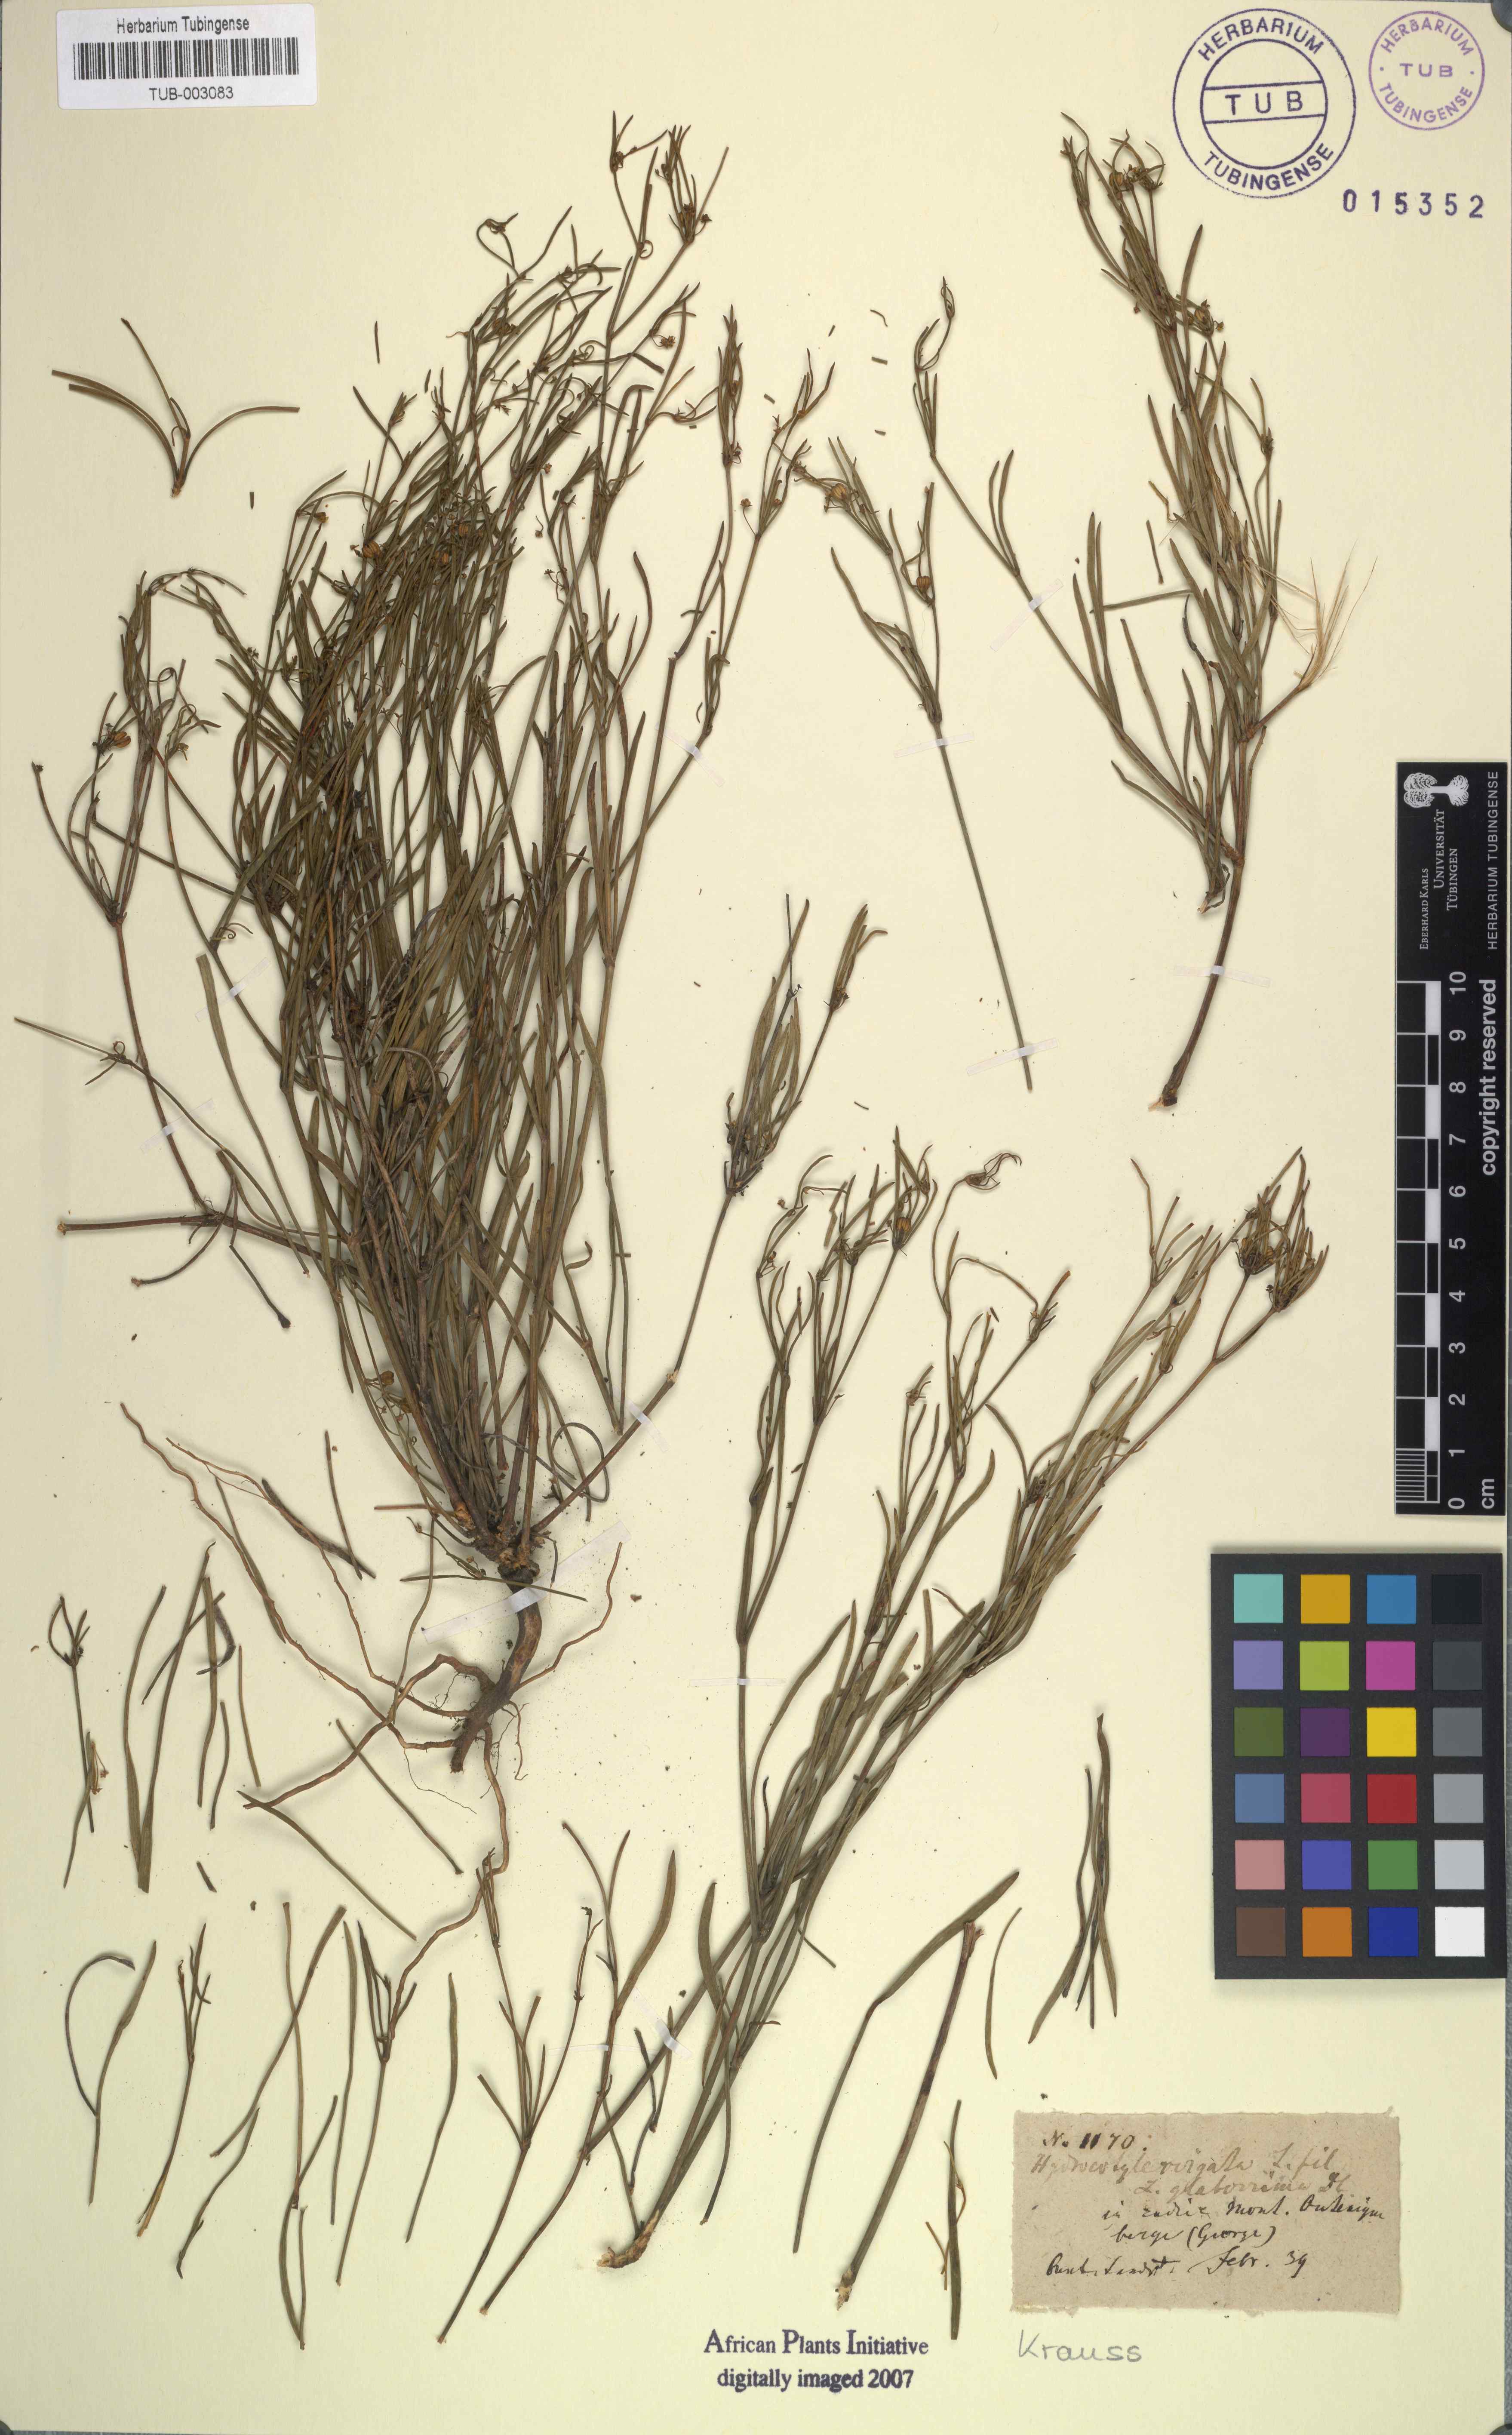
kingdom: Plantae
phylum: Tracheophyta
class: Magnoliopsida
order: Apiales
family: Apiaceae
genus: Centella
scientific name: Centella virgata
